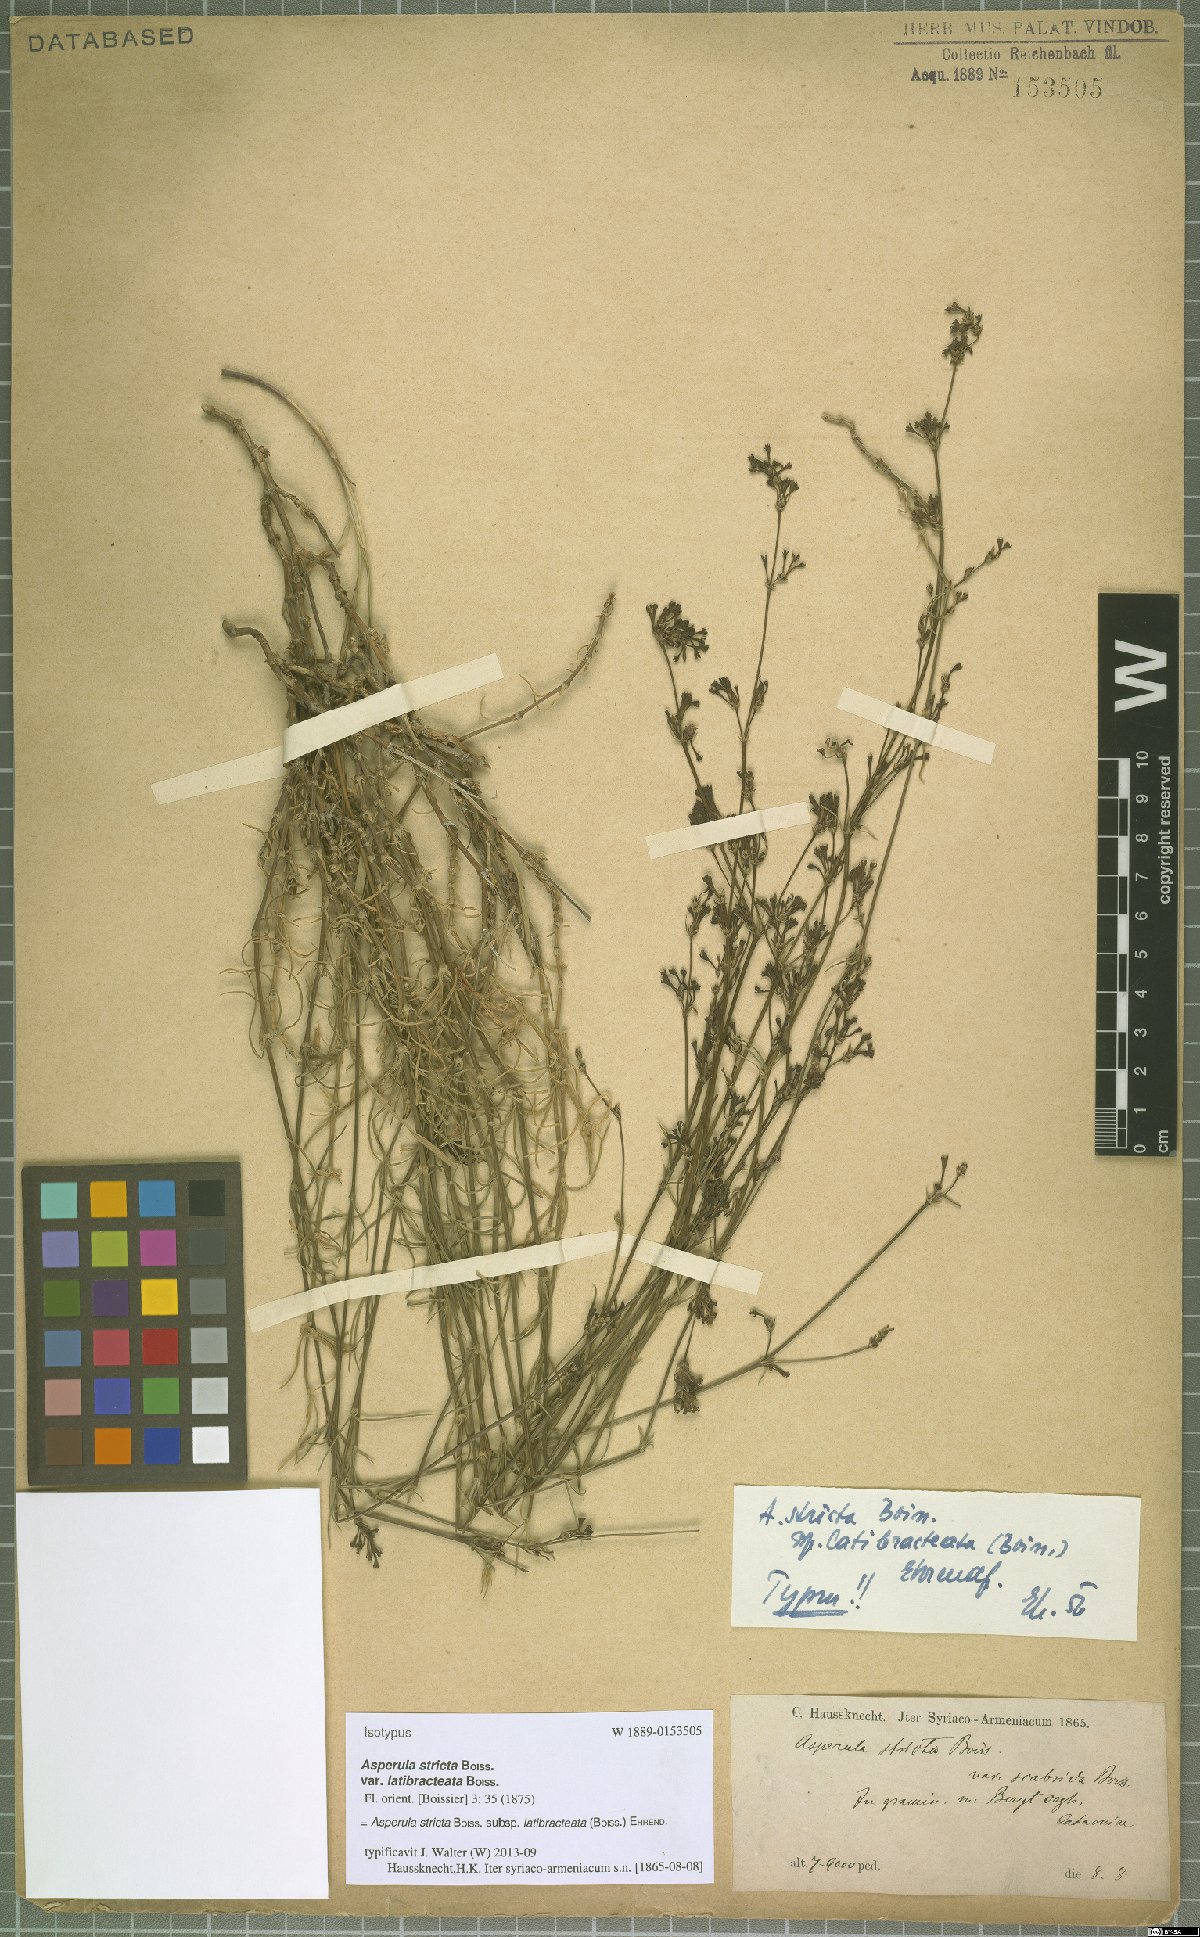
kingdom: Plantae
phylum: Tracheophyta
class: Magnoliopsida
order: Gentianales
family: Rubiaceae
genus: Cynanchica
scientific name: Cynanchica stricta
